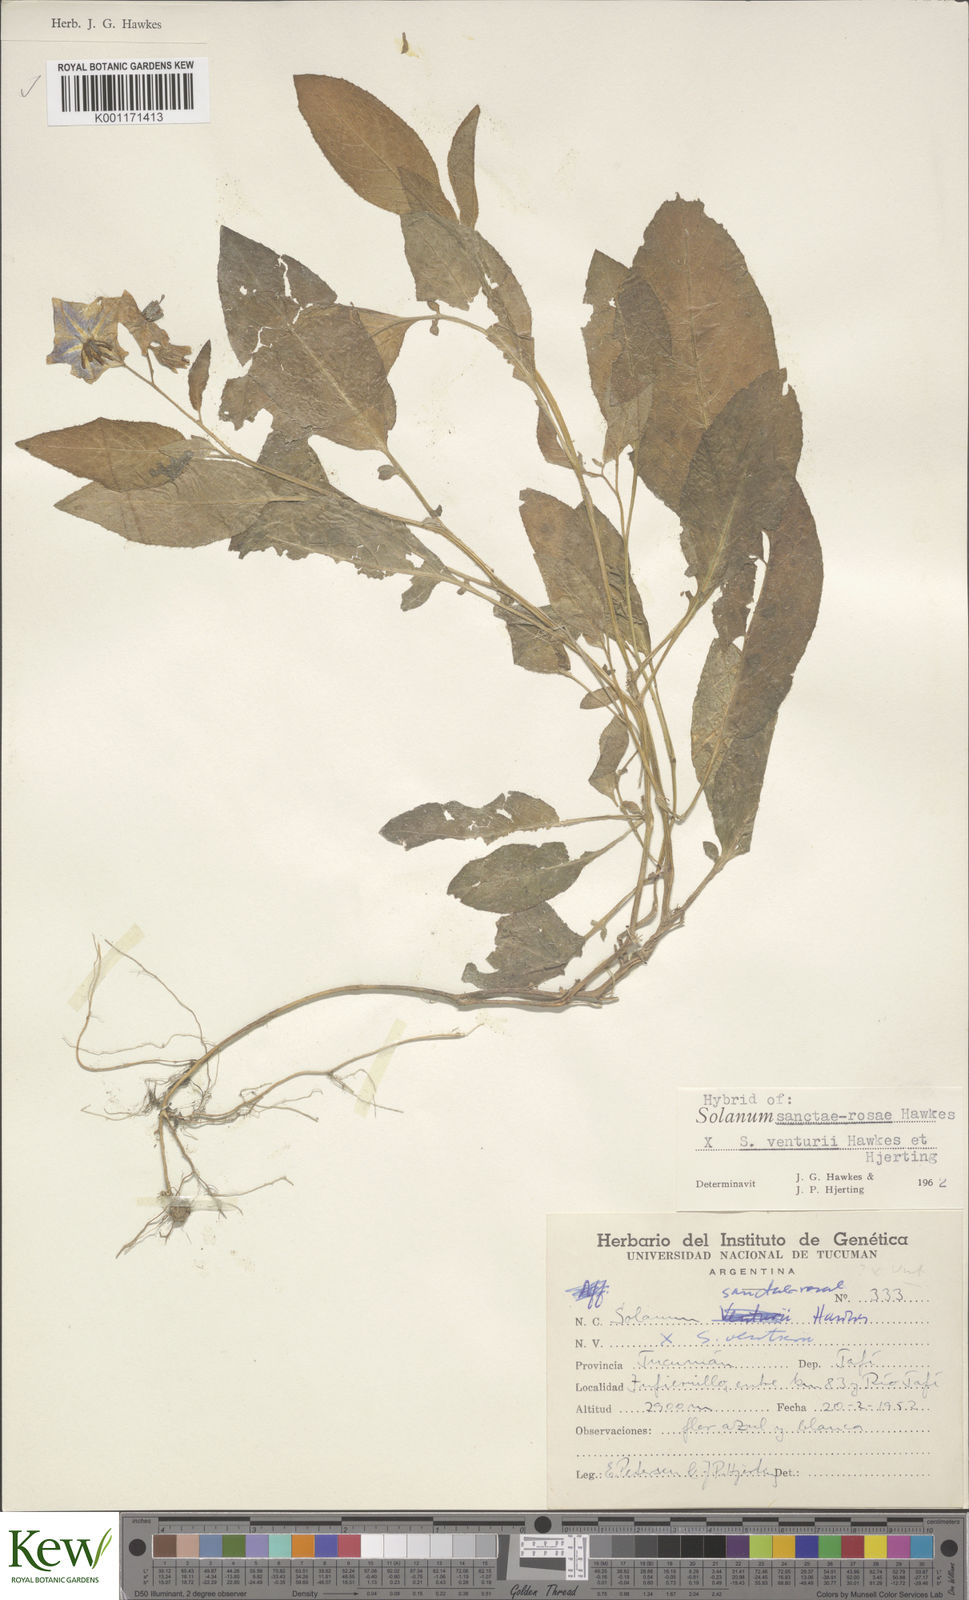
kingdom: Plantae
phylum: Tracheophyta
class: Magnoliopsida
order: Solanales
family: Solanaceae
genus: Solanum
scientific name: Solanum boliviense
